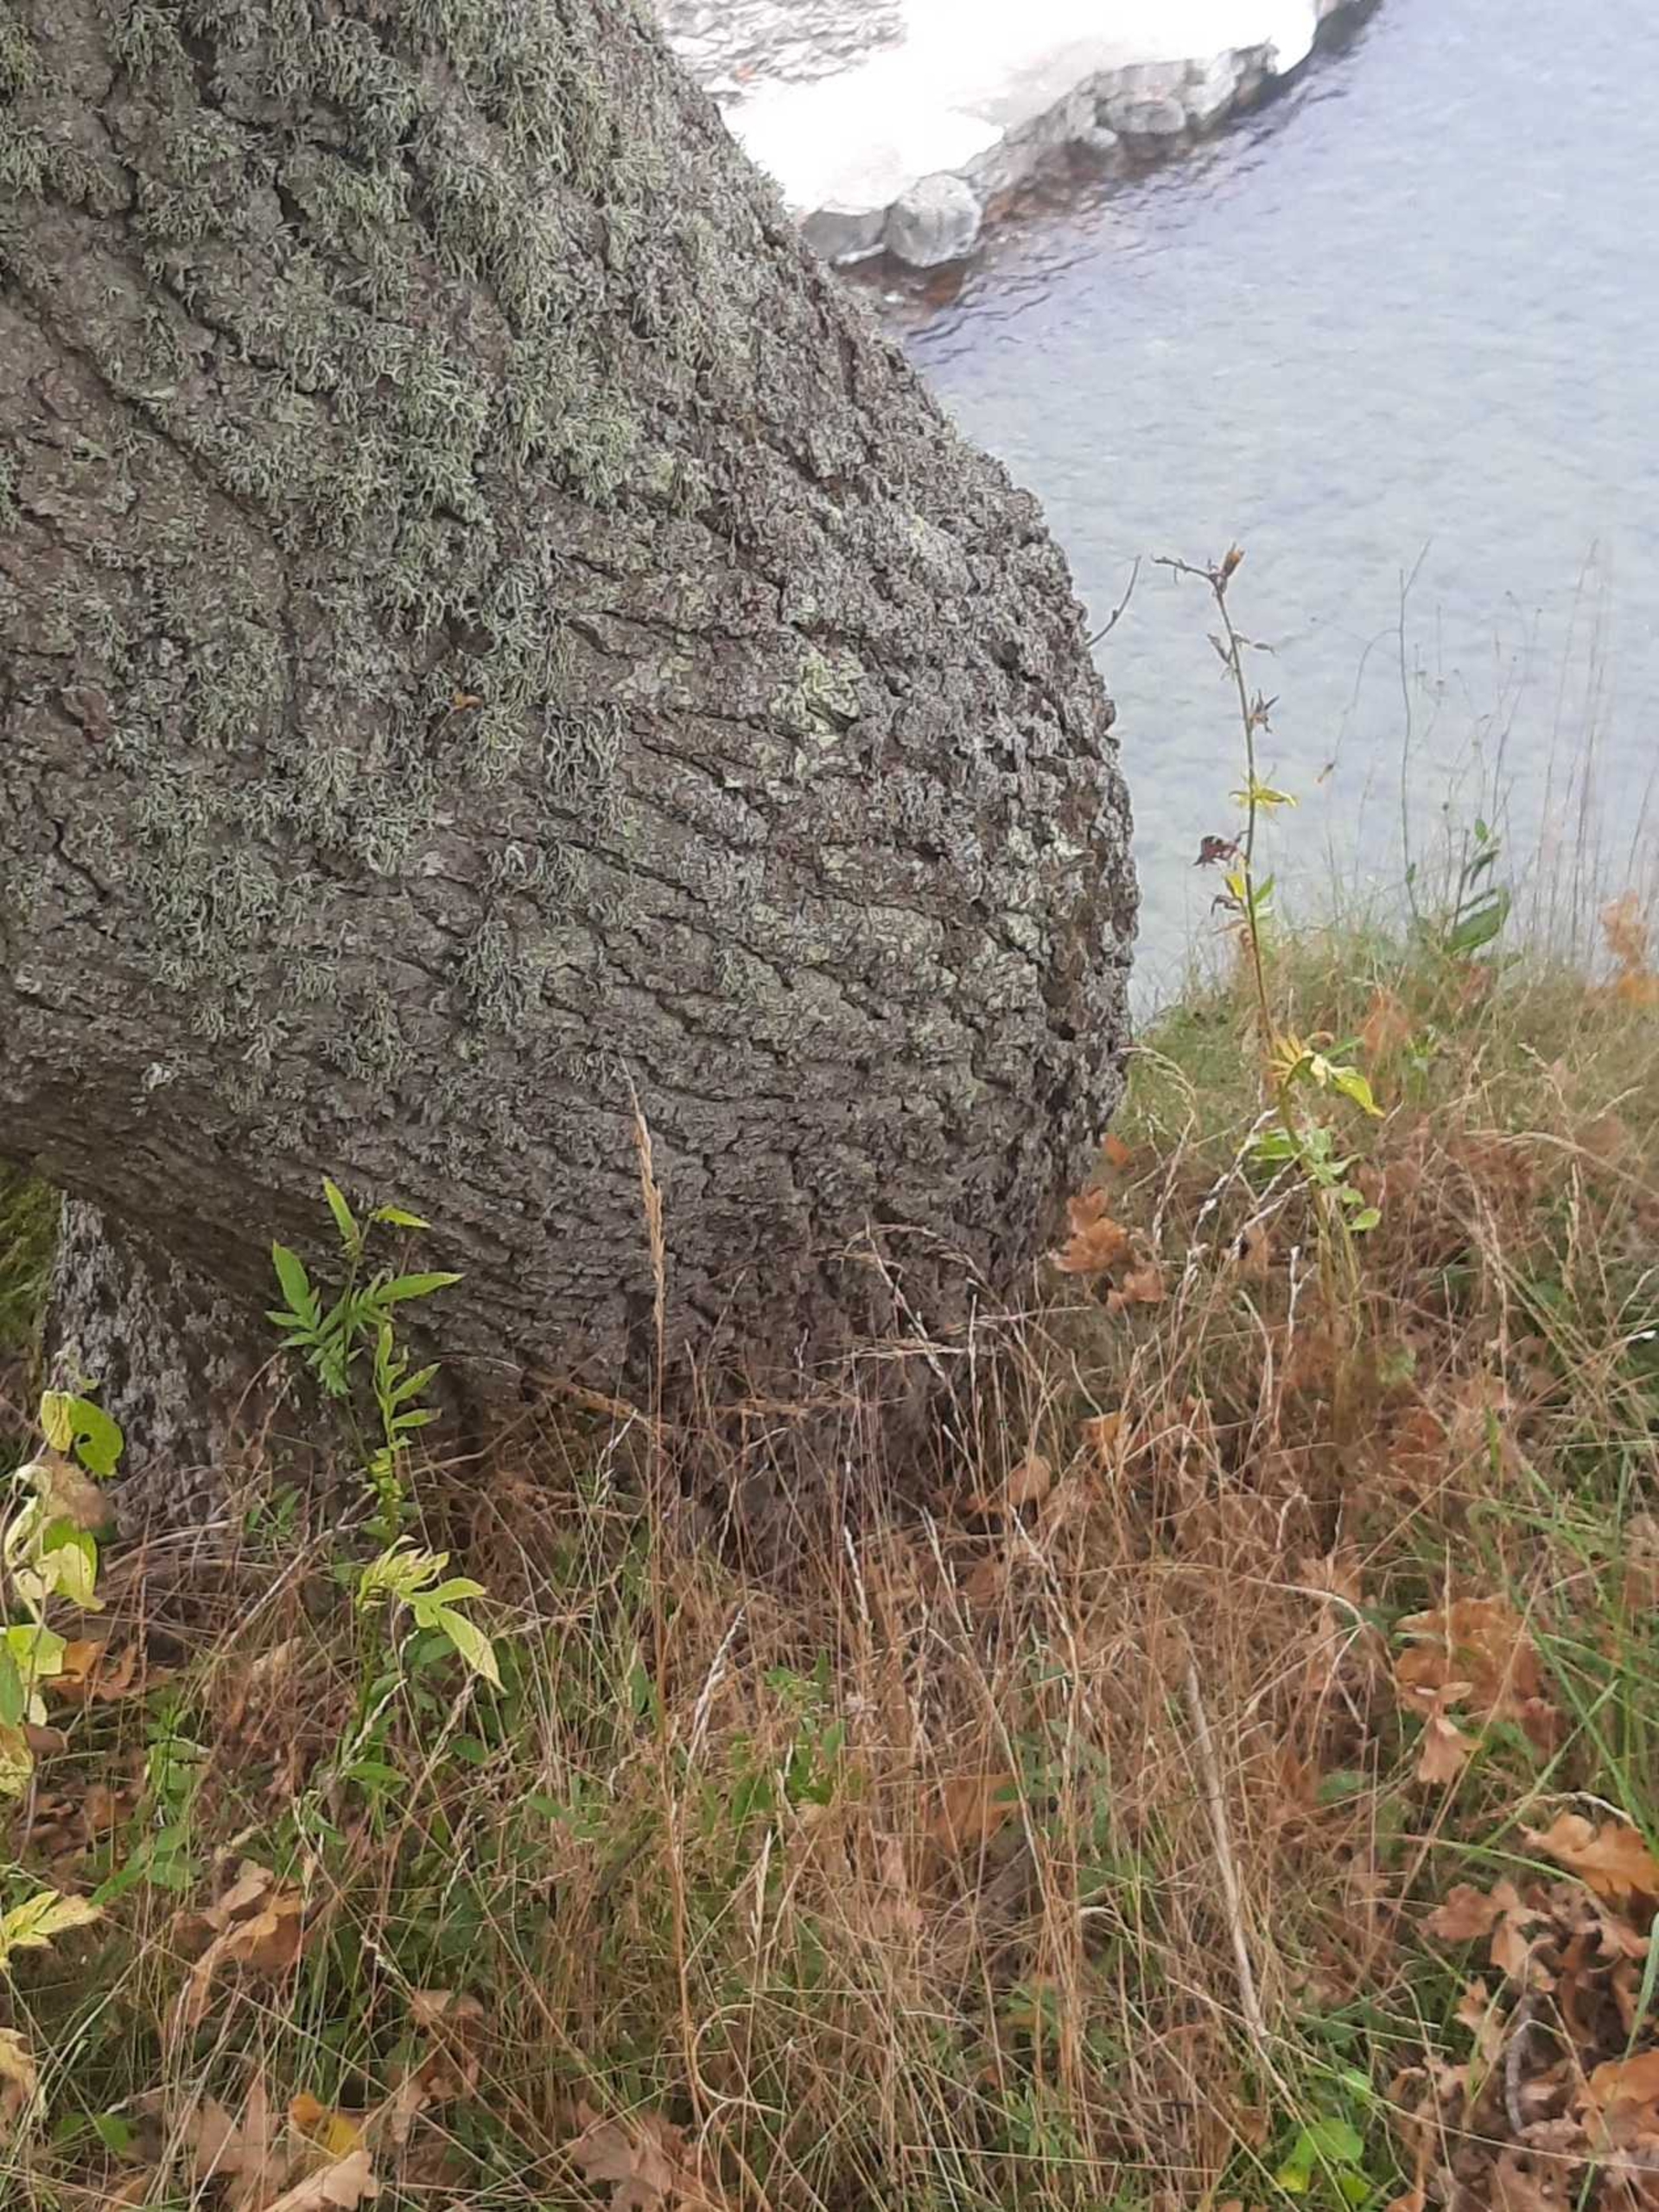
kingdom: Plantae
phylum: Tracheophyta
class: Magnoliopsida
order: Asterales
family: Asteraceae
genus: Serratula
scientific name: Serratula tinctoria
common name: Eng-skær
